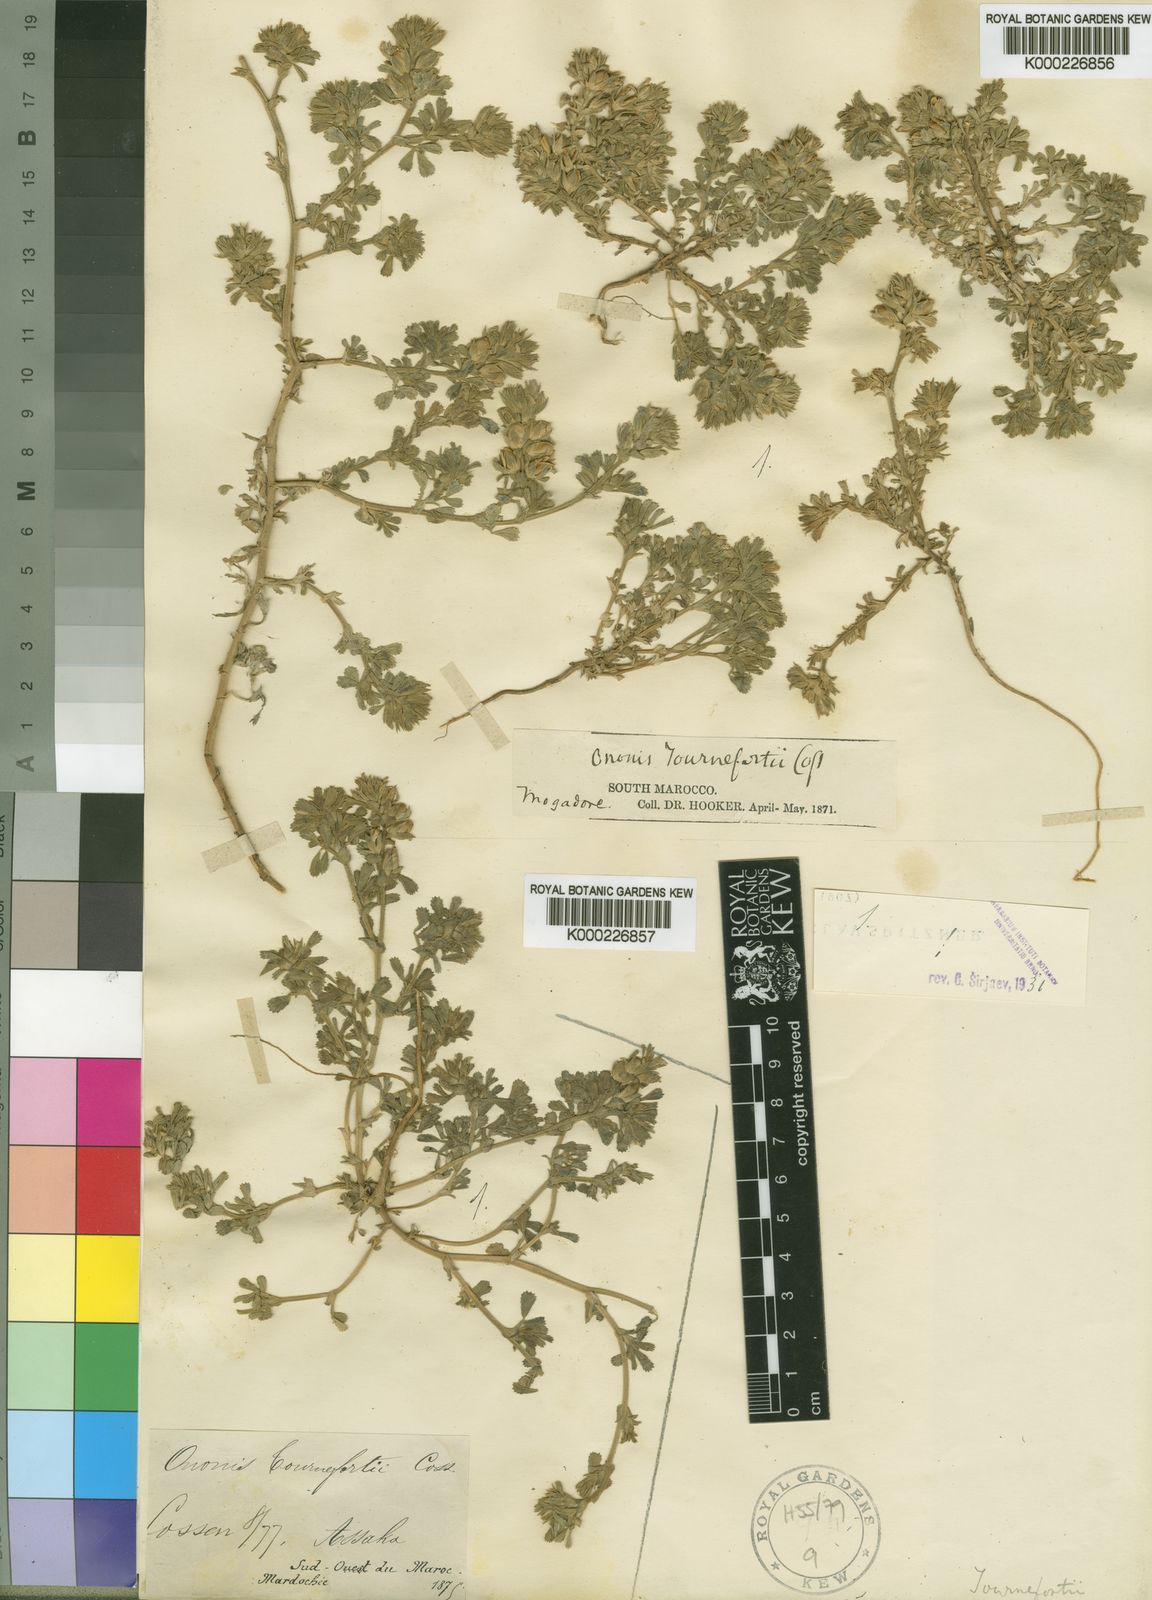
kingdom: Plantae
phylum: Tracheophyta
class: Magnoliopsida
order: Fabales
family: Fabaceae
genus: Ononis
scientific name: Ononis tournefortii
